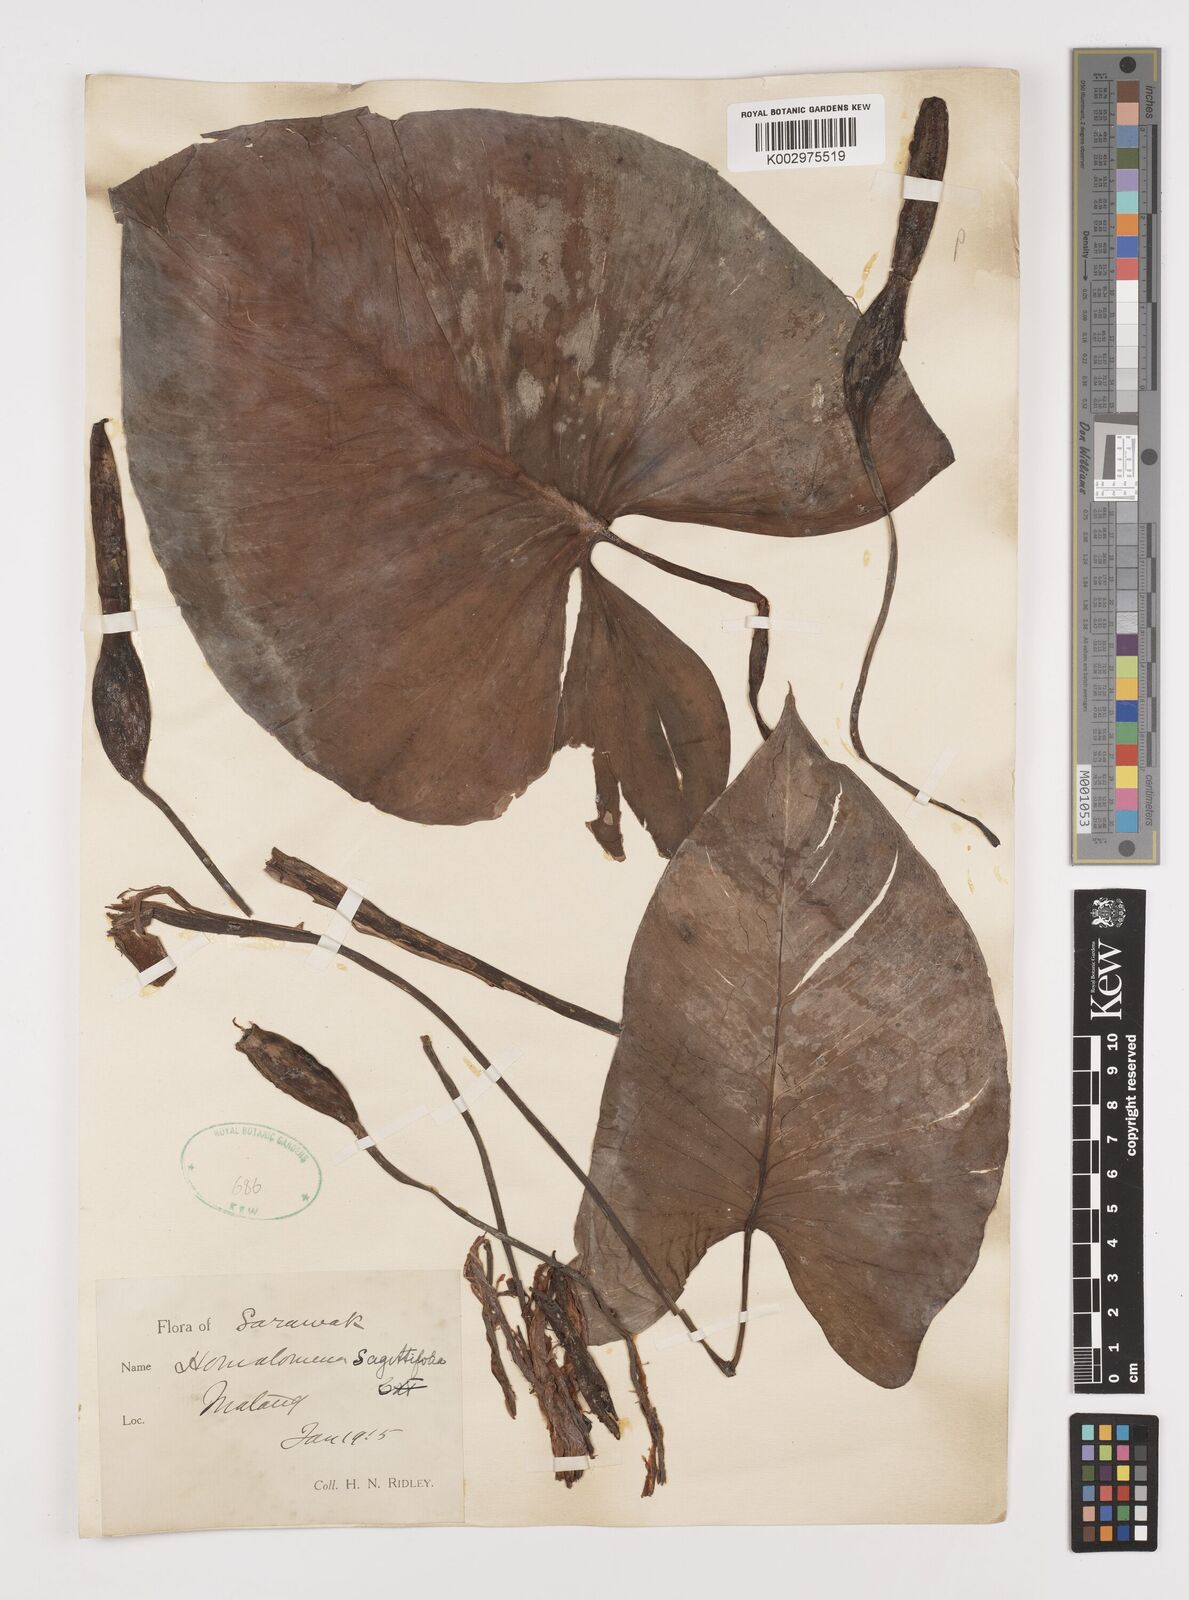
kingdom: Plantae
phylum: Tracheophyta
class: Liliopsida
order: Alismatales
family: Araceae
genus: Homalomena
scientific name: Homalomena rostrata
